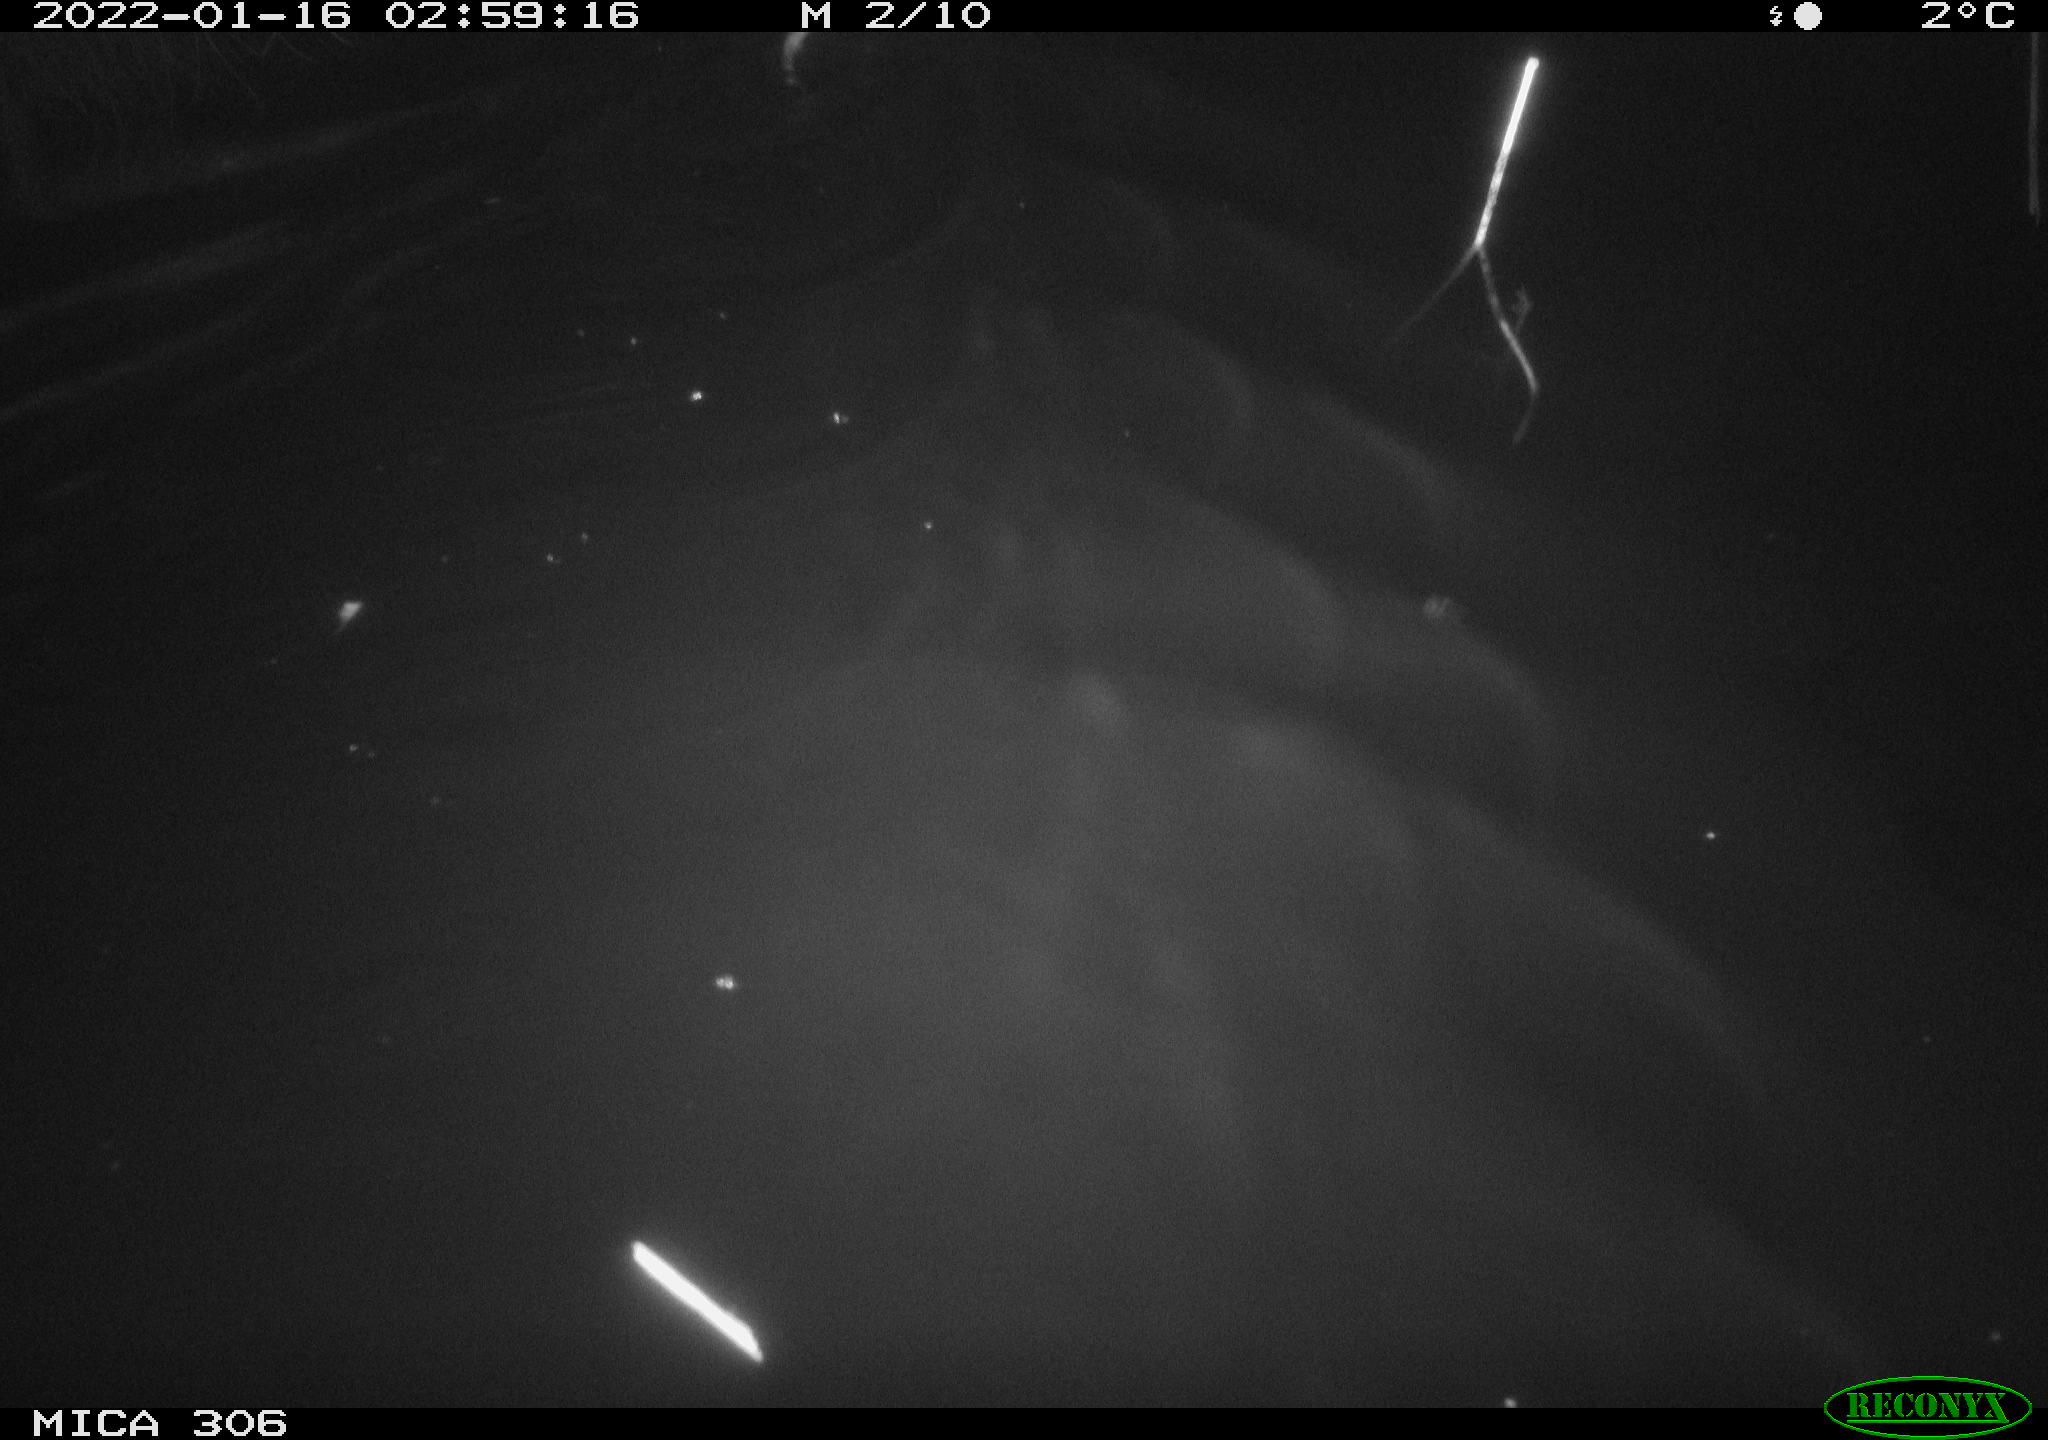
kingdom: Animalia
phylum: Chordata
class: Mammalia
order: Rodentia
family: Cricetidae
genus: Ondatra
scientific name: Ondatra zibethicus
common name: Muskrat
